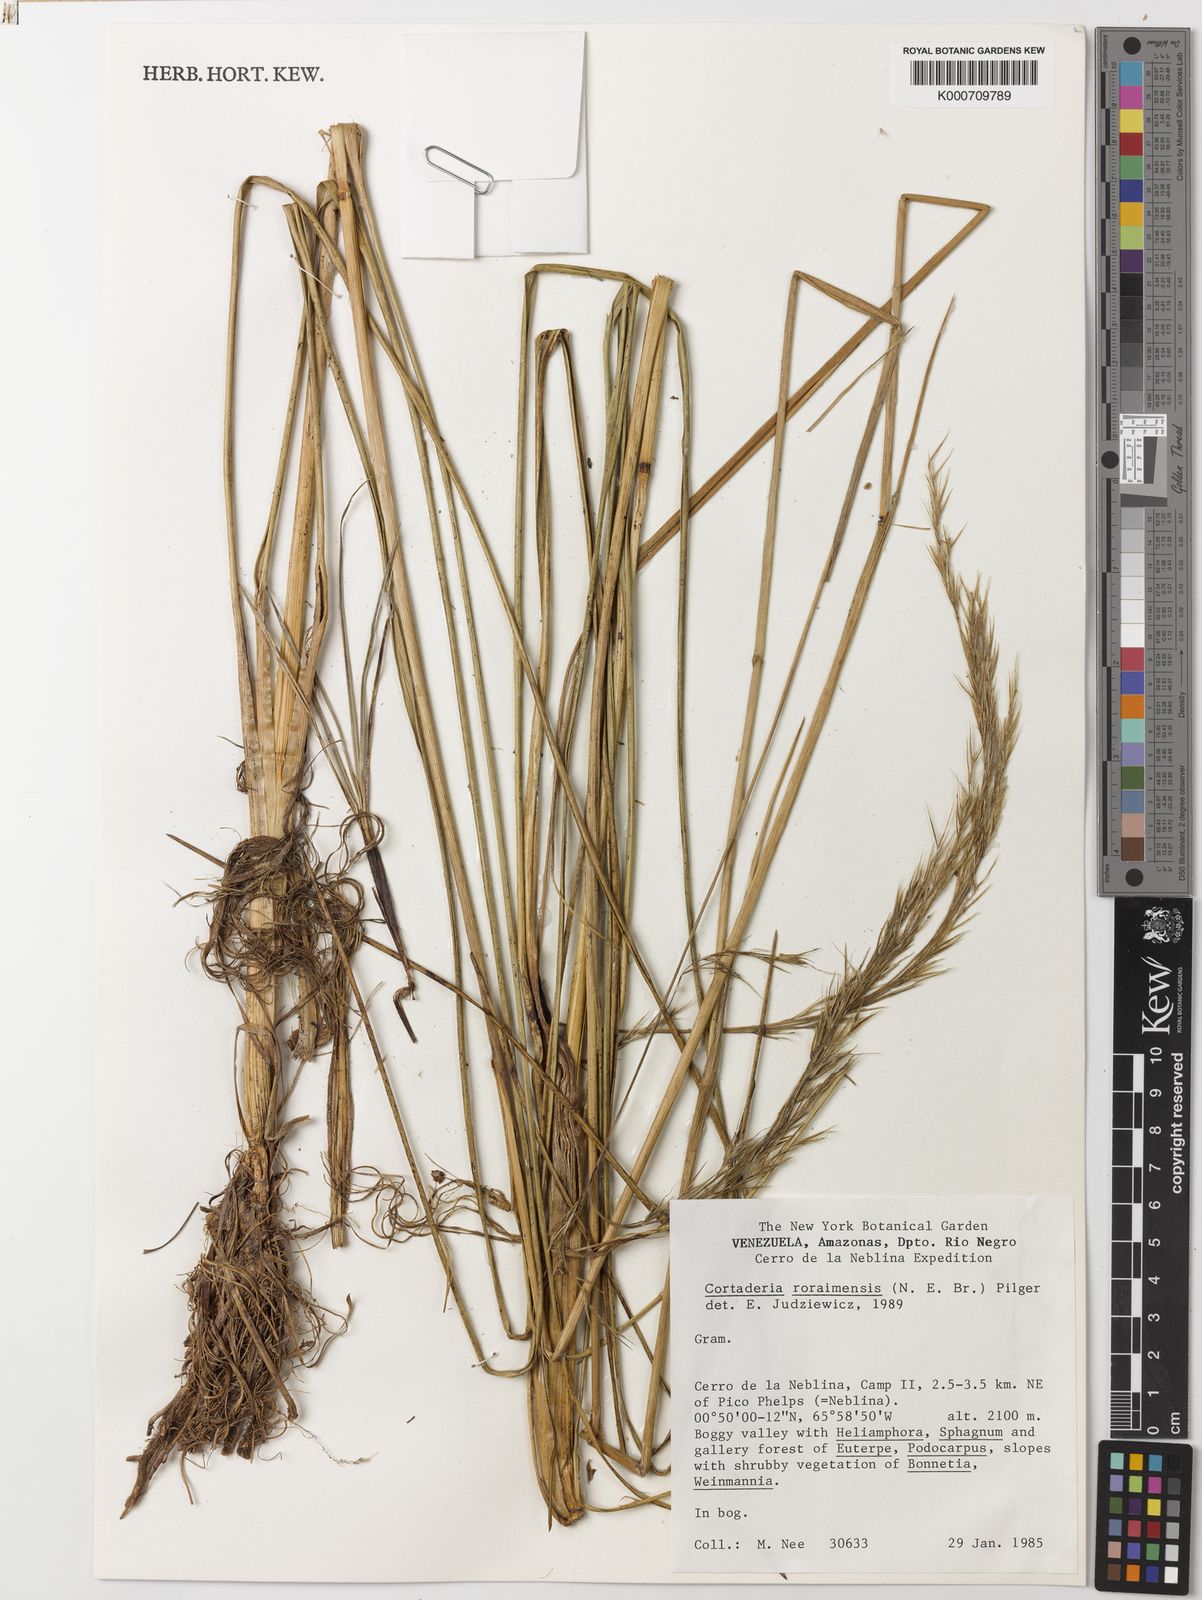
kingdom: Plantae
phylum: Tracheophyta
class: Liliopsida
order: Poales
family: Poaceae
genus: Cortaderia
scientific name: Cortaderia roraimensis
